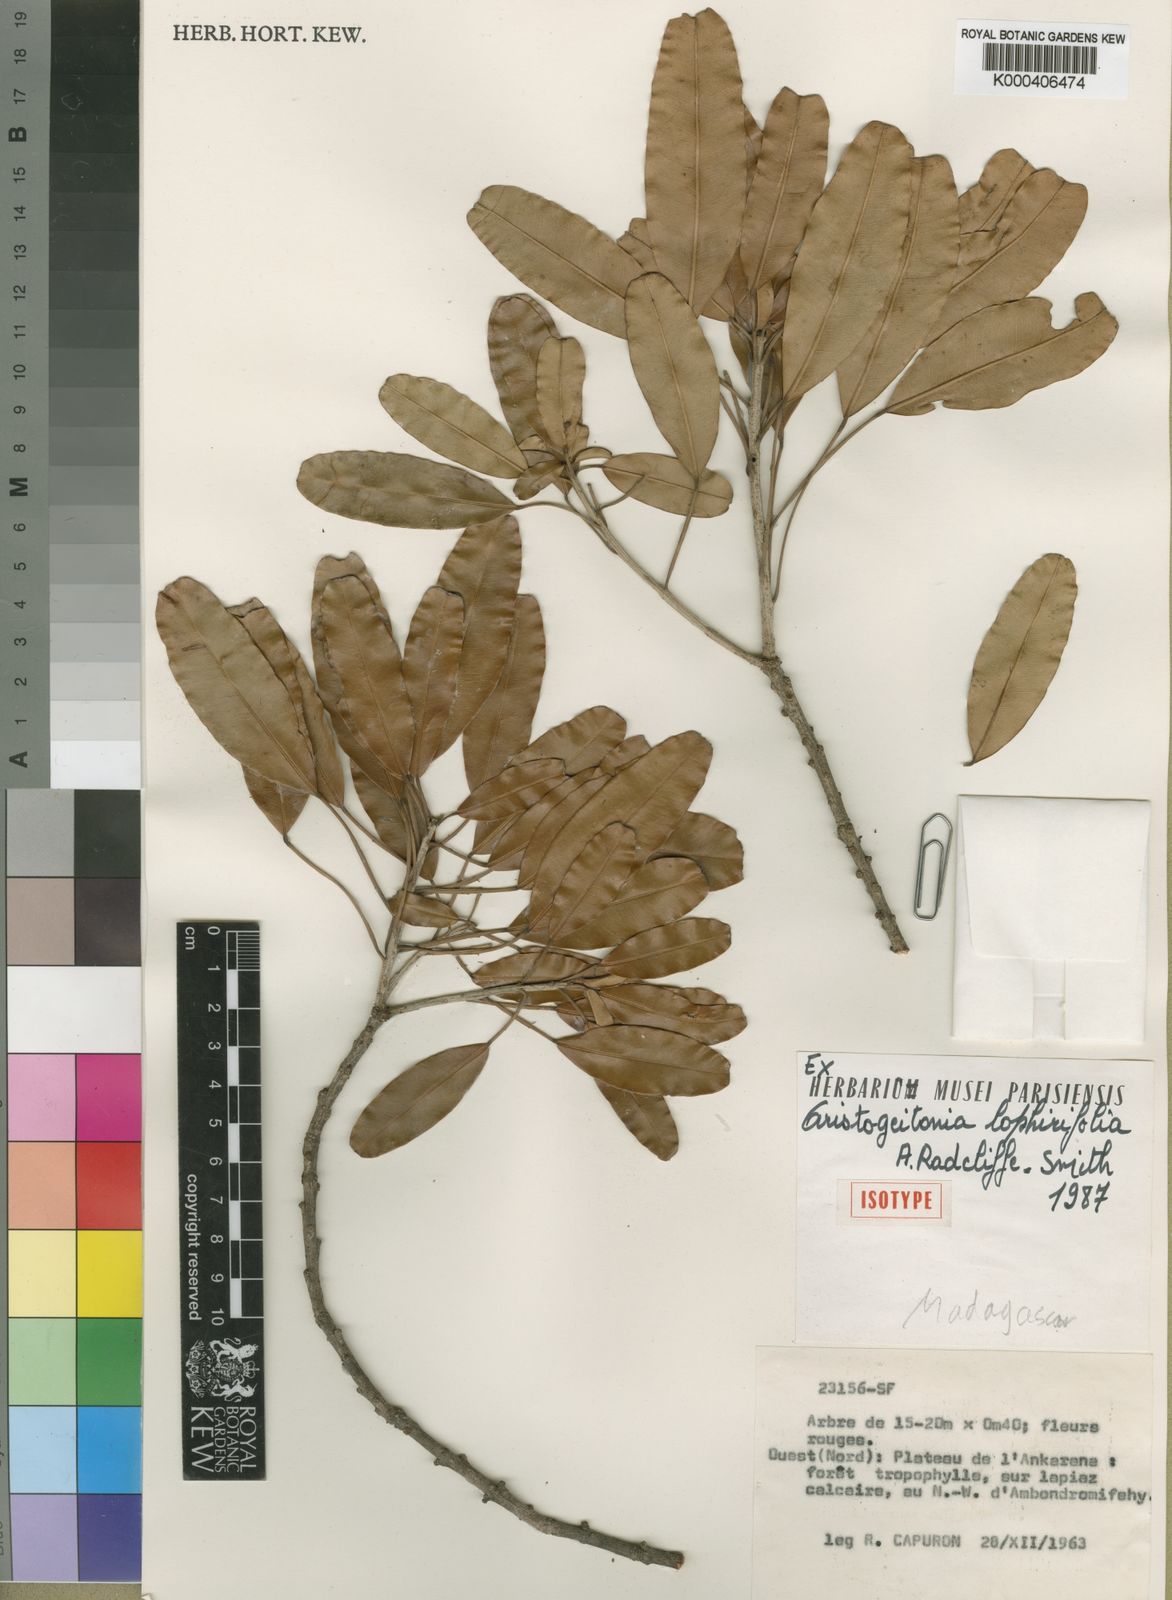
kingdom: Plantae
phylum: Tracheophyta
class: Magnoliopsida
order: Malpighiales
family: Picrodendraceae
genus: Aristogeitonia
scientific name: Aristogeitonia lophirifolia
